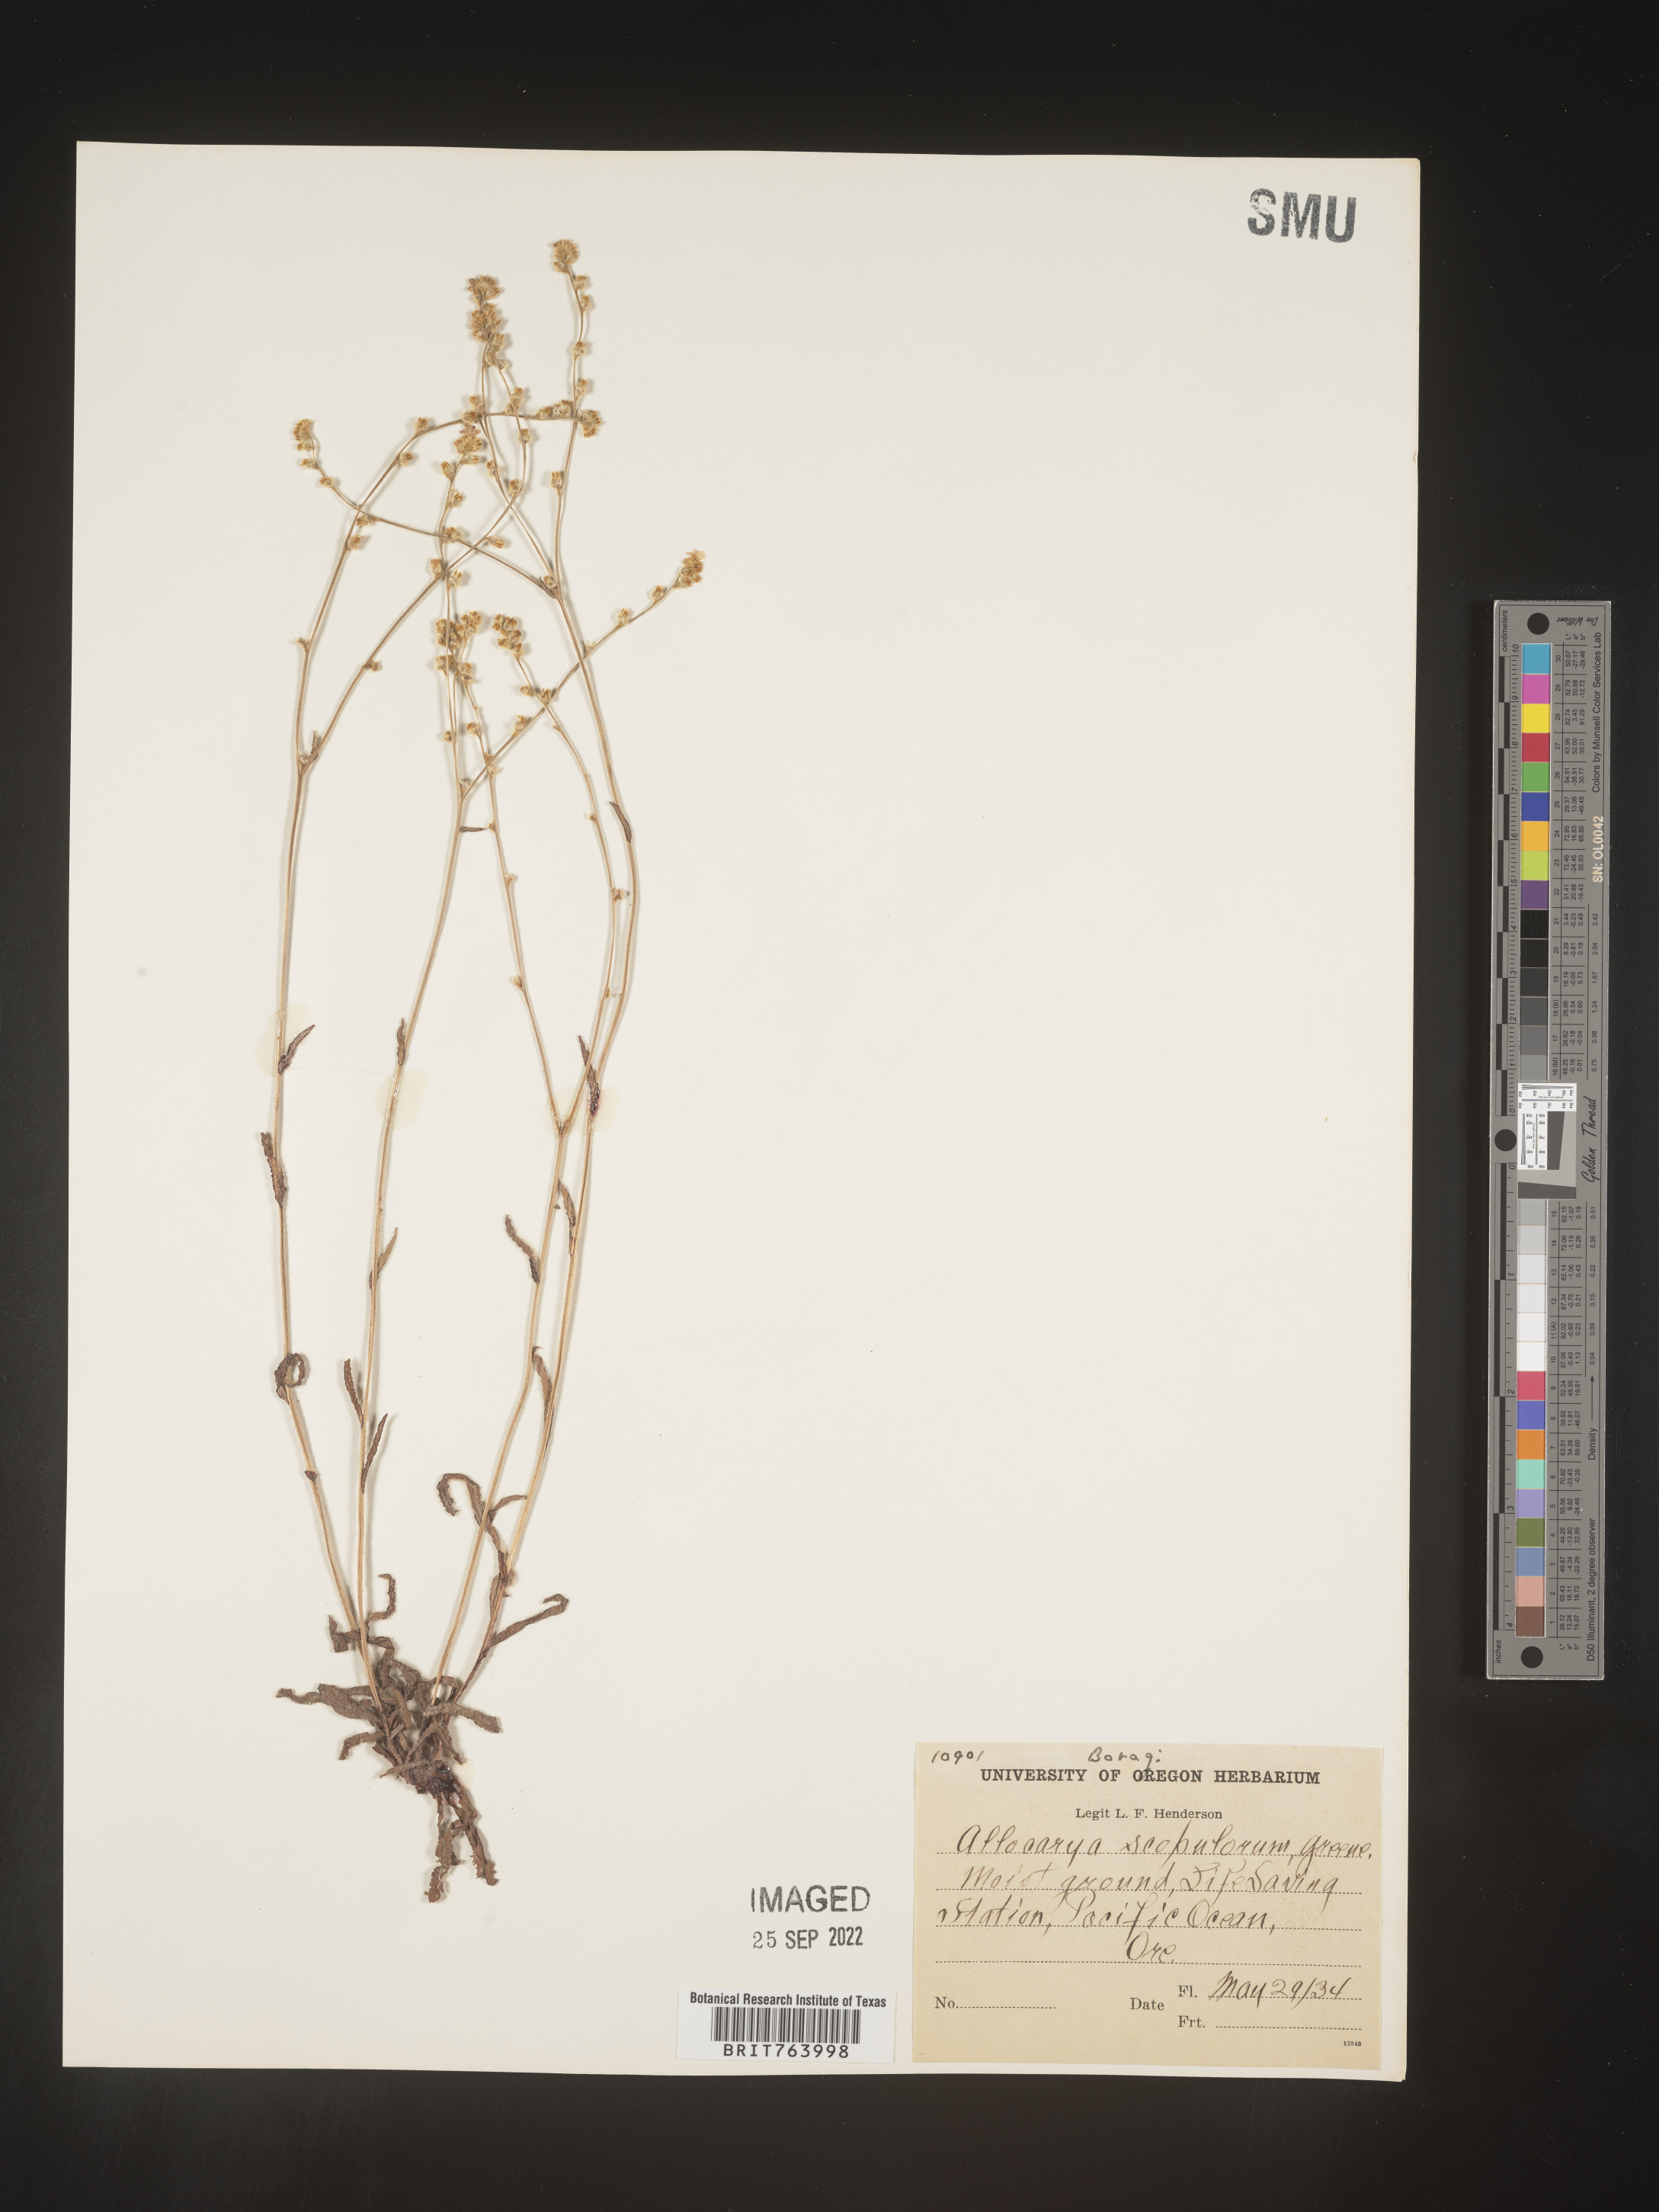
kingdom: Plantae
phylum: Tracheophyta
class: Magnoliopsida
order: Boraginales
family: Boraginaceae
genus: Plagiobothrys
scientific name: Plagiobothrys
